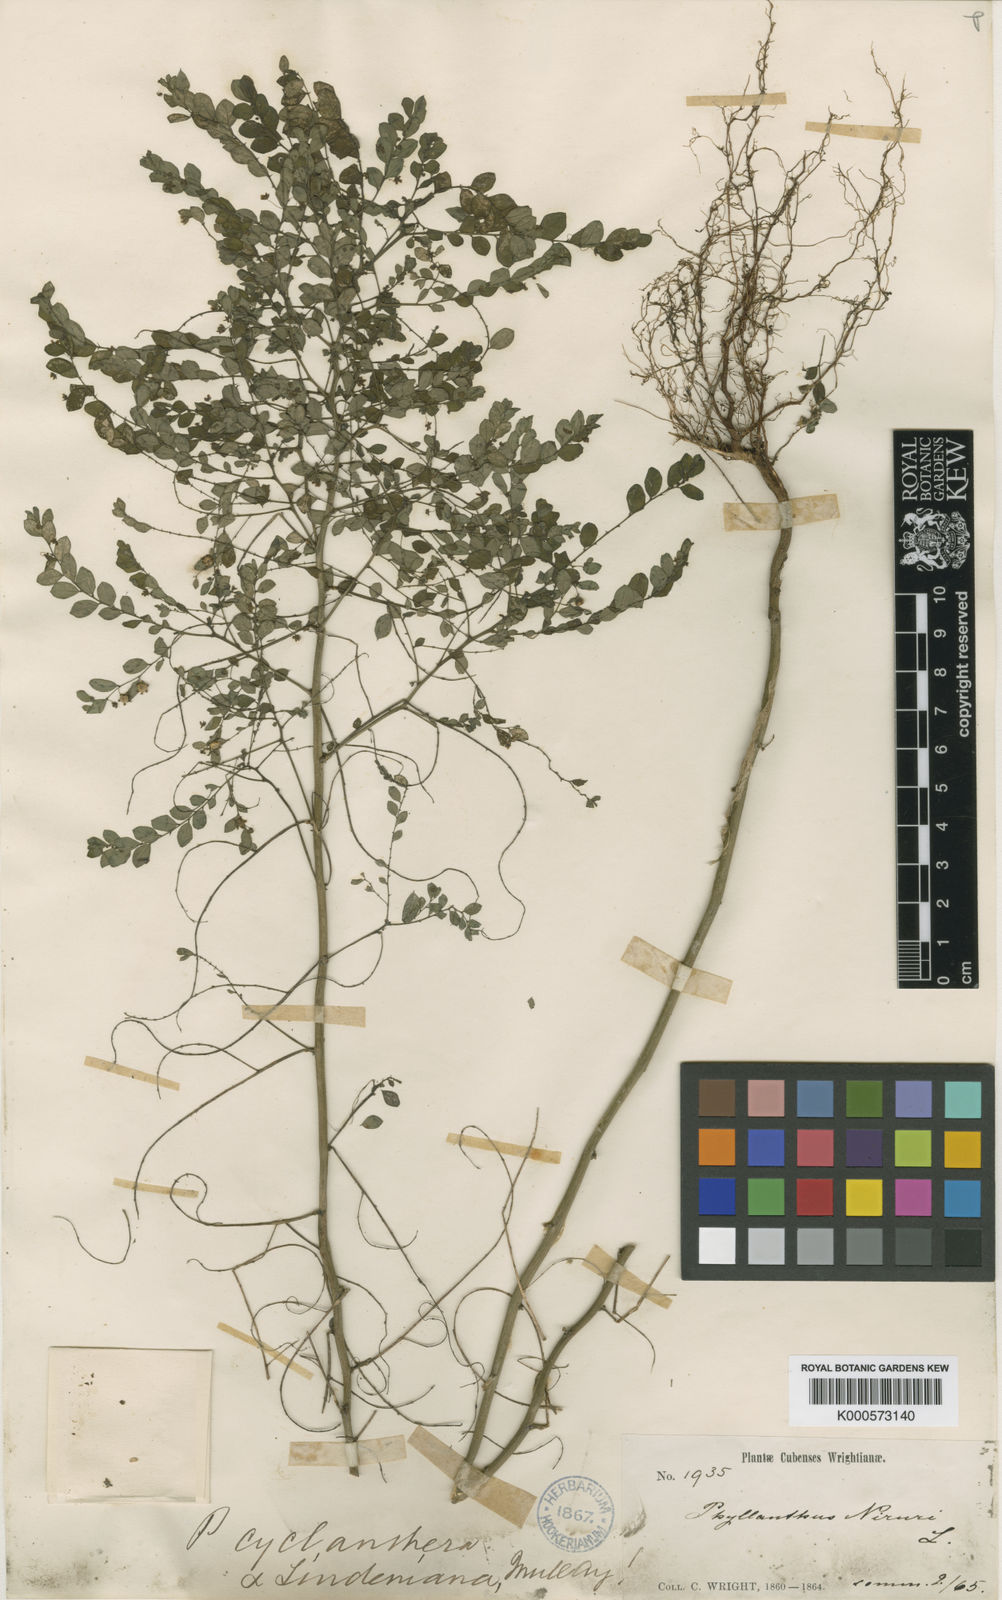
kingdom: Plantae
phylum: Tracheophyta
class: Magnoliopsida
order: Malpighiales
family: Phyllanthaceae
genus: Phyllanthus
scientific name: Phyllanthus pentaphyllus
